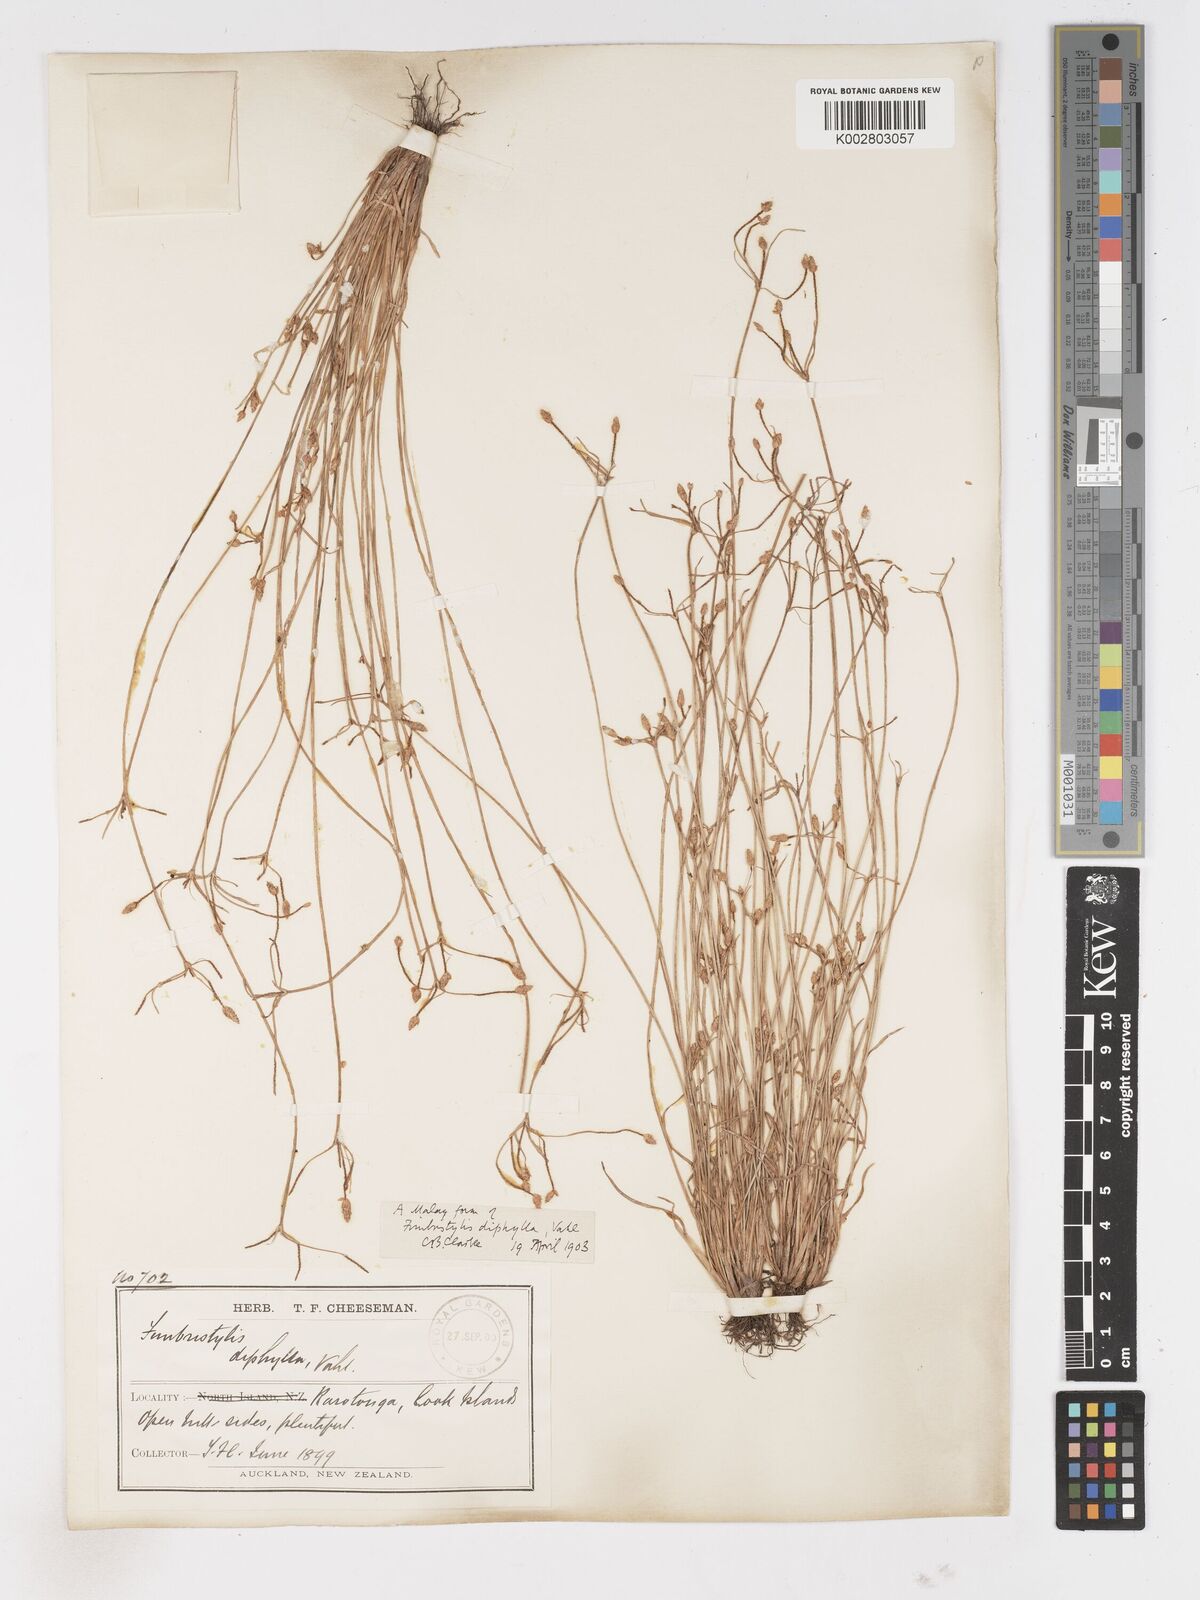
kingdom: Plantae
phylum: Tracheophyta
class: Liliopsida
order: Poales
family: Cyperaceae
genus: Fimbristylis
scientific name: Fimbristylis dichotoma
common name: Forked fimbry
